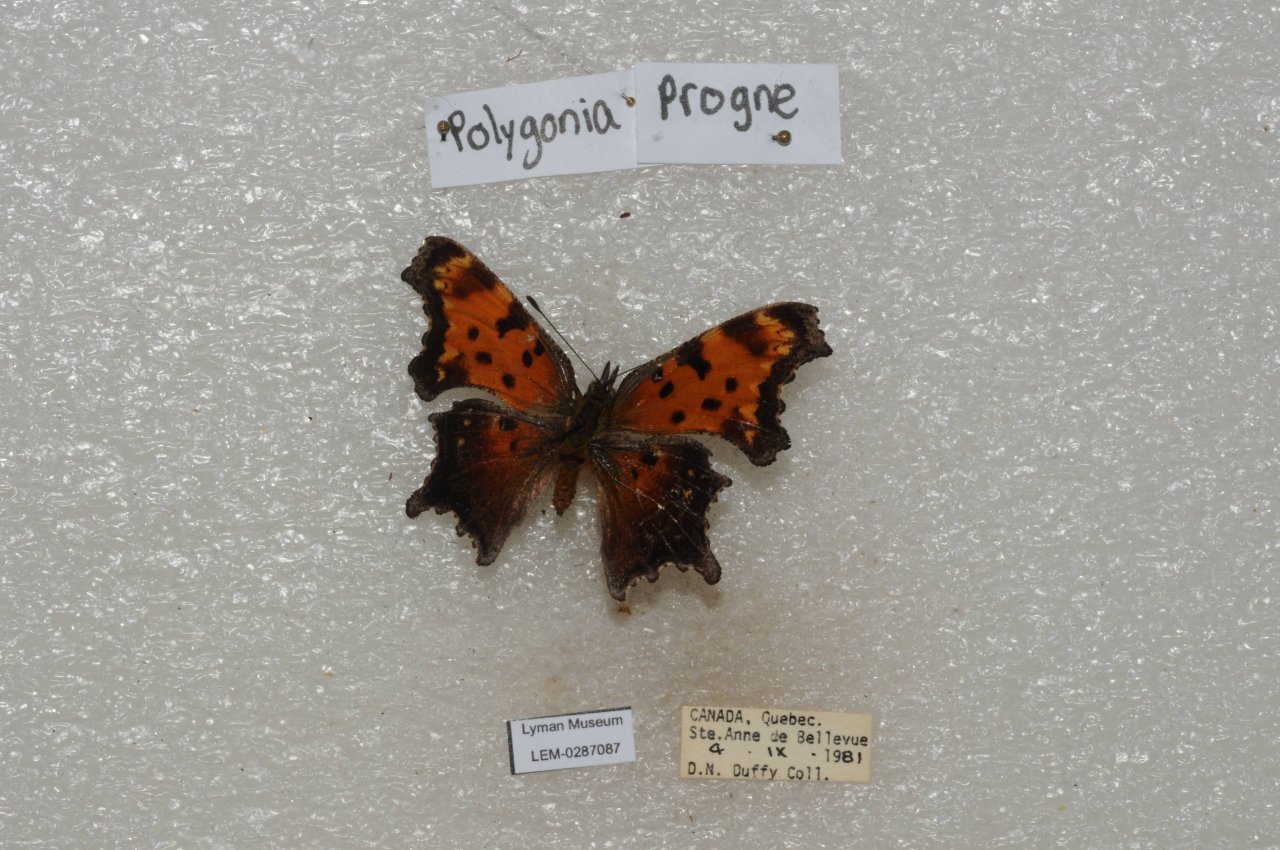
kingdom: Animalia
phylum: Arthropoda
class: Insecta
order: Lepidoptera
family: Nymphalidae
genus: Polygonia
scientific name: Polygonia progne
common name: Gray Comma
